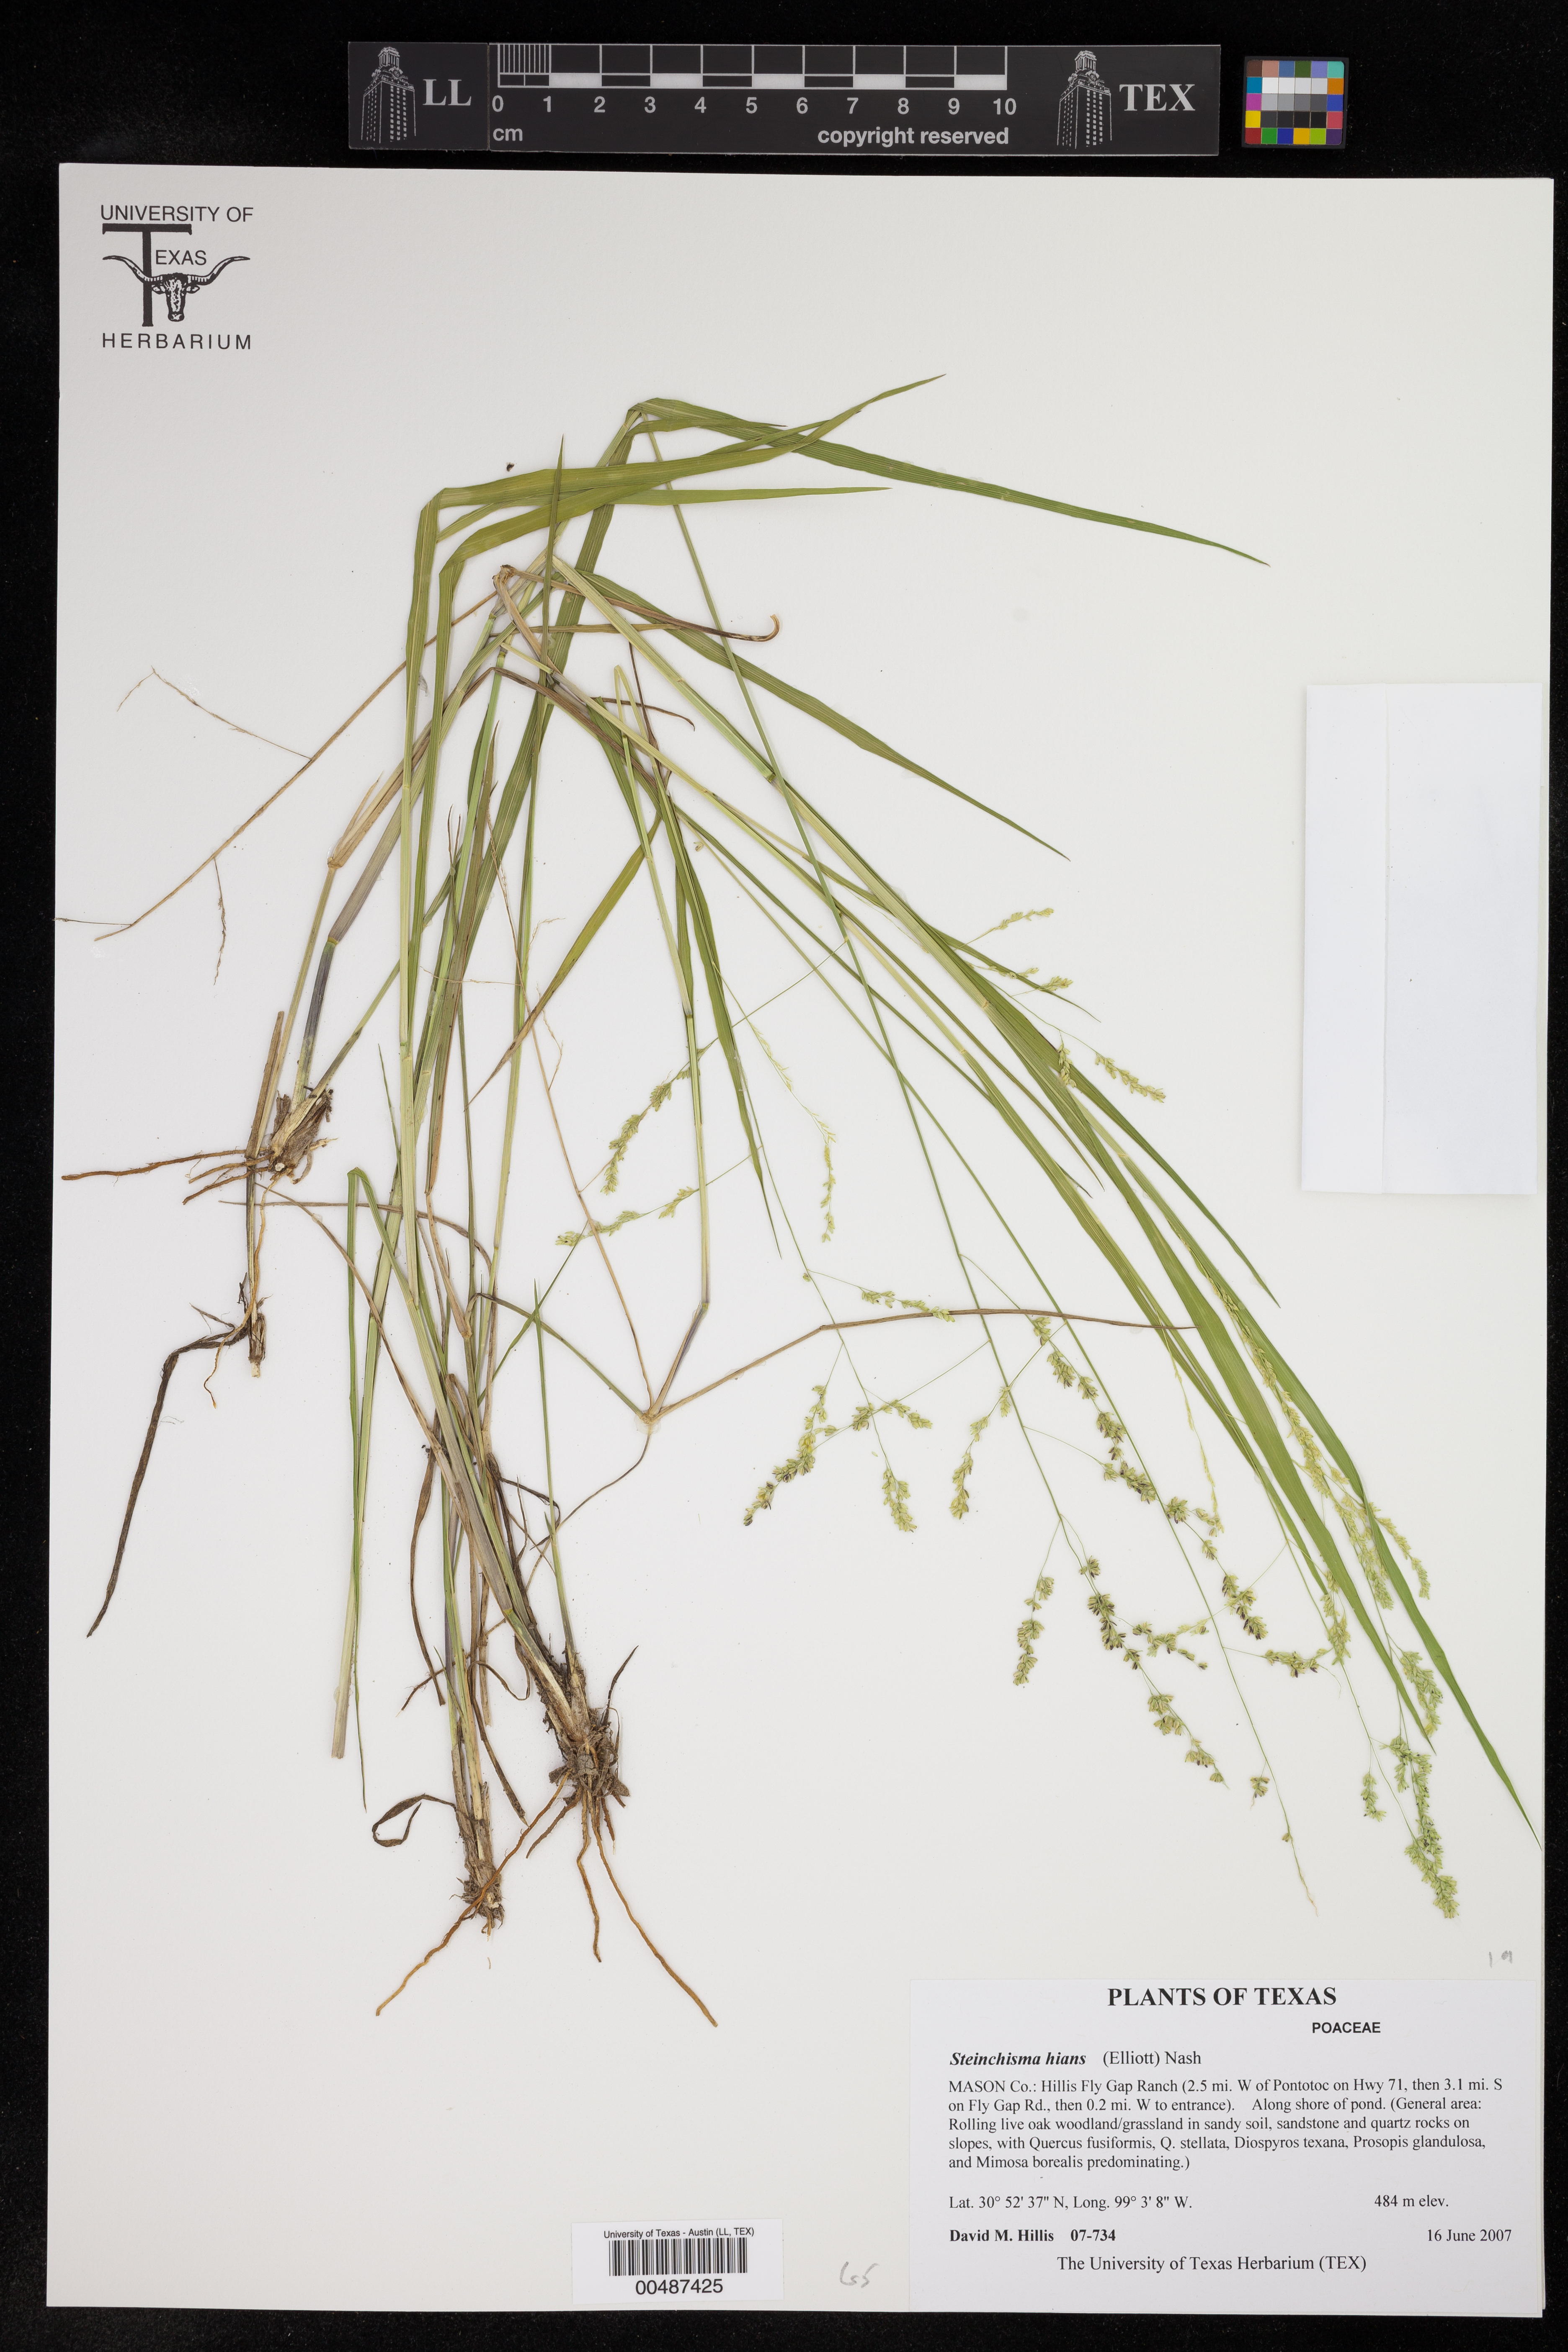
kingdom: Plantae
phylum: Tracheophyta
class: Liliopsida
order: Poales
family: Poaceae
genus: Steinchisma
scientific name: Steinchisma hians
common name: Gaping panic grass
